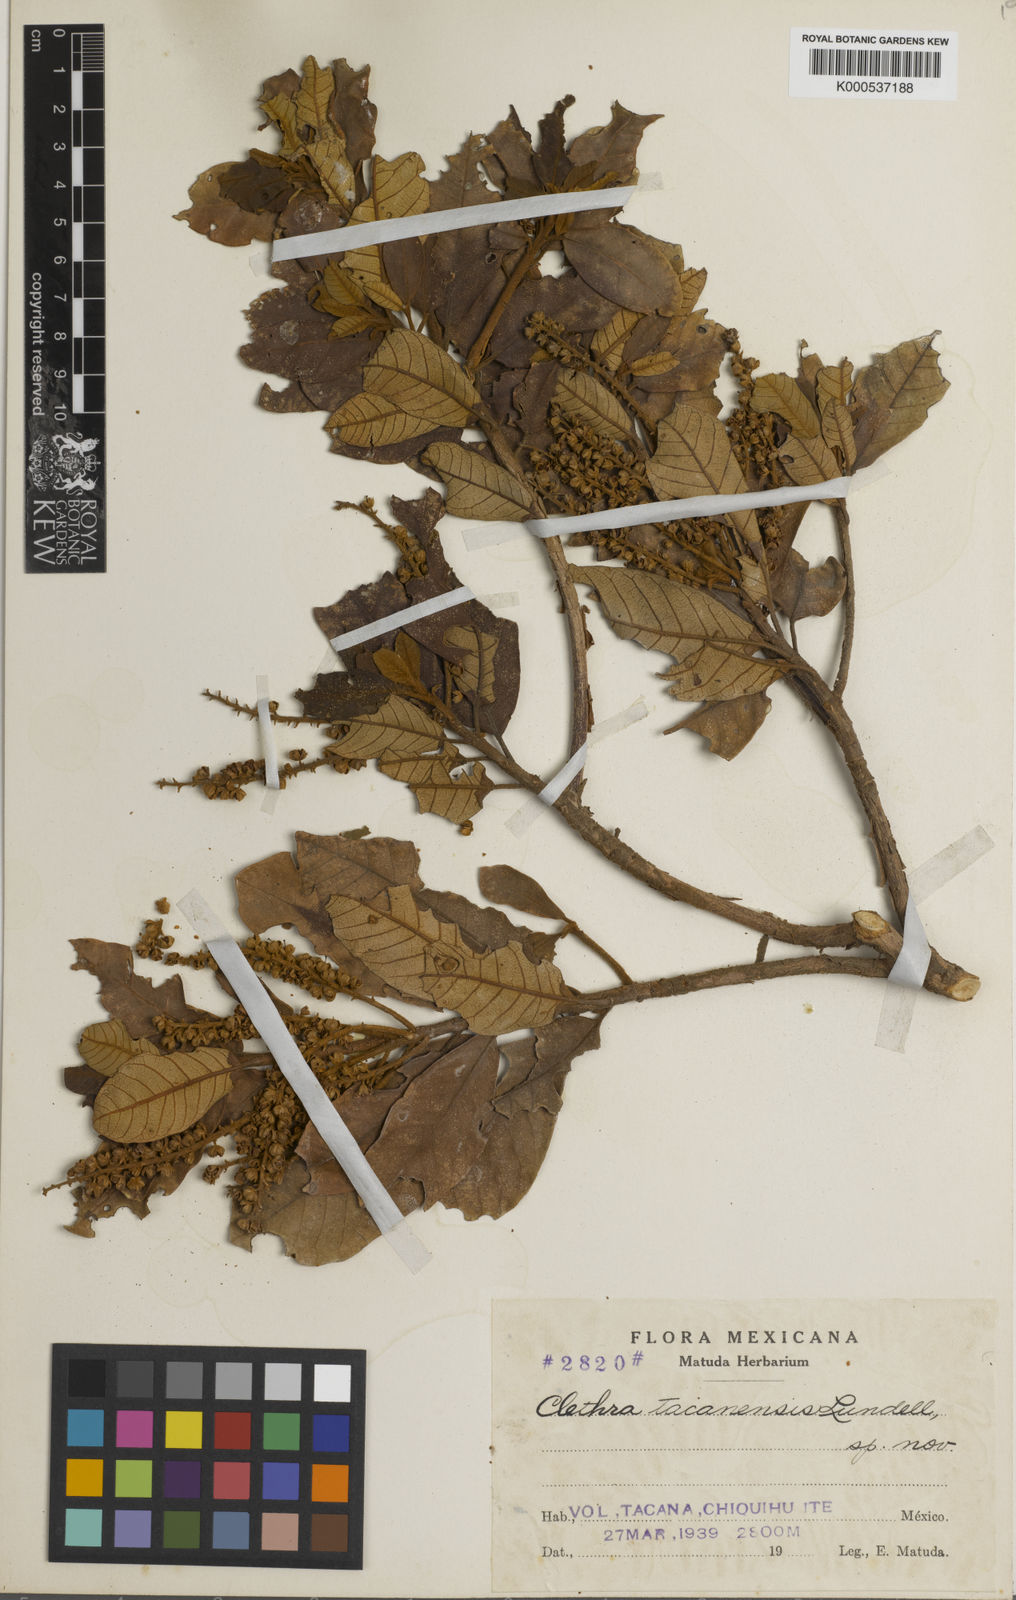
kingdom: Plantae
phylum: Tracheophyta
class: Magnoliopsida
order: Ericales
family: Clethraceae
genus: Clethra
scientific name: Clethra
